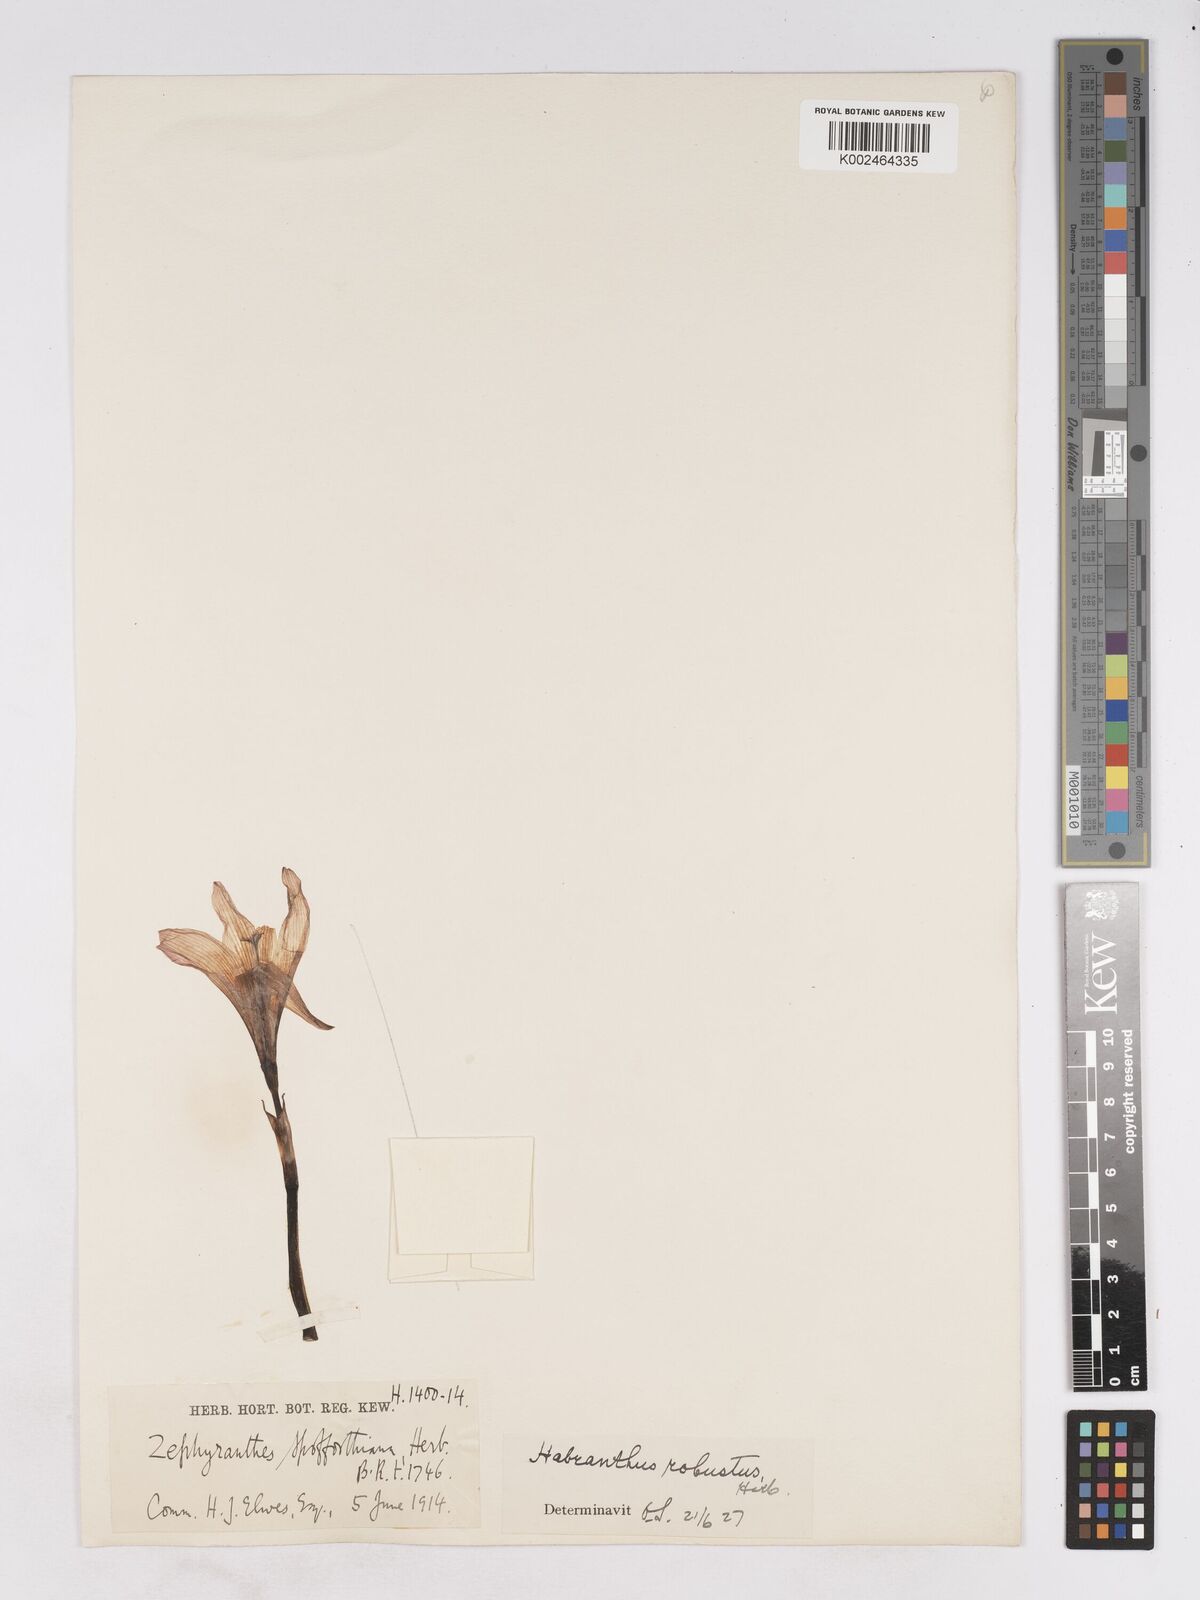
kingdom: Plantae
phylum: Tracheophyta
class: Liliopsida
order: Asparagales
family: Amaryllidaceae
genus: Zephyranthes
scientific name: Zephyranthes robusta
